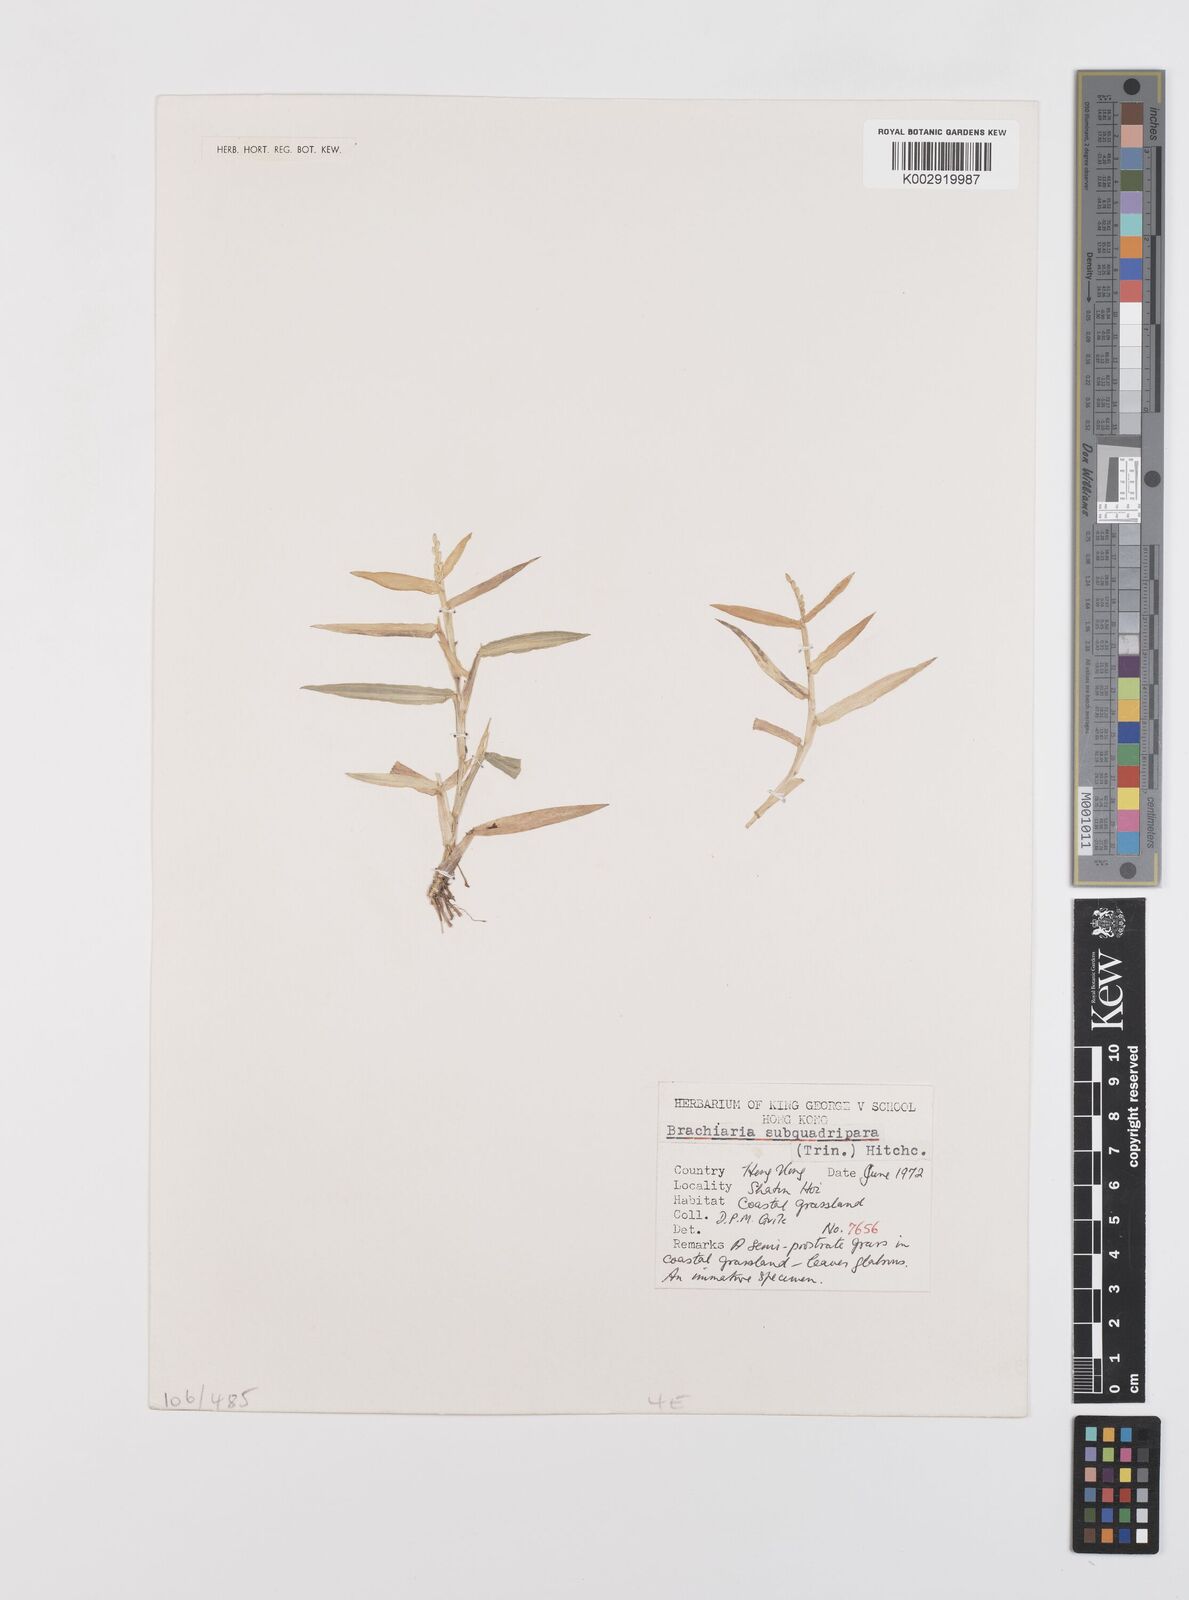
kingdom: Plantae
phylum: Tracheophyta
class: Liliopsida
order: Poales
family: Poaceae
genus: Urochloa
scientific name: Urochloa subquadripara
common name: Armgrass millet
